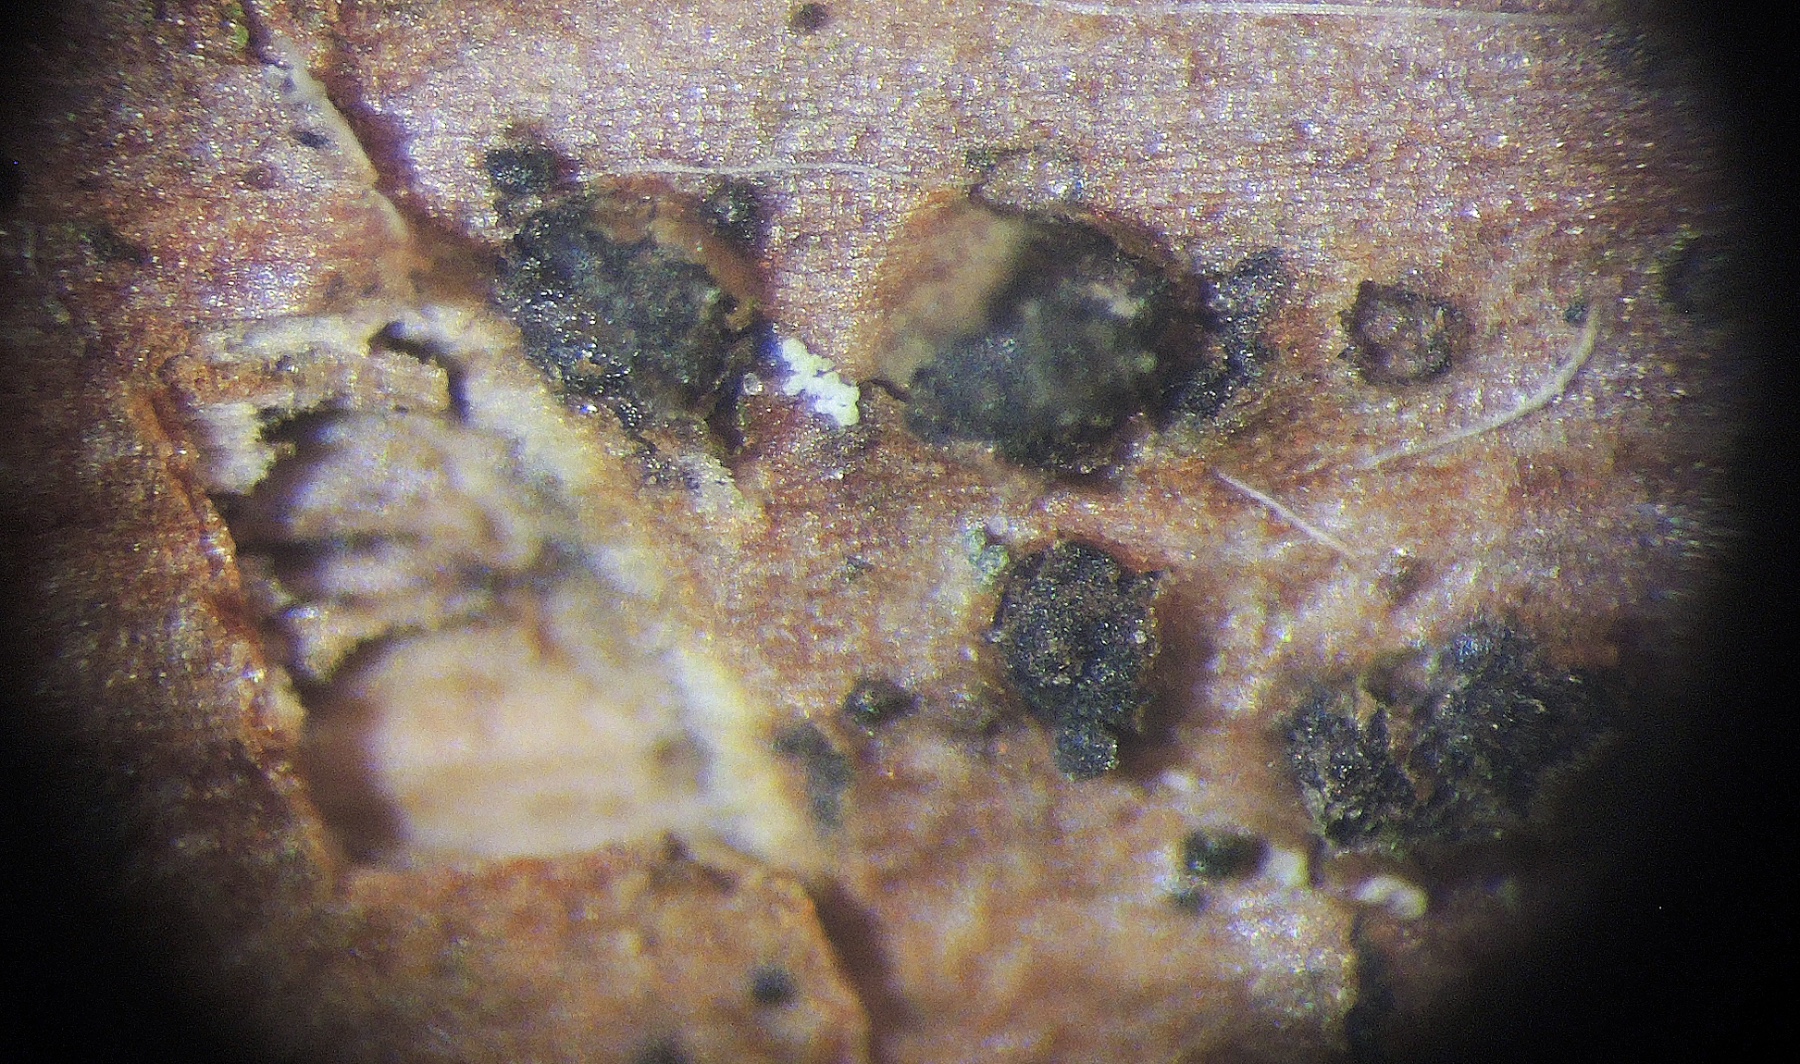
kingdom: Fungi
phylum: Ascomycota
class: Dothideomycetes
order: Pleosporales
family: Leptosphaeriaceae
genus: Paraleptosphaeria
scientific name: Paraleptosphaeria praetermissa
